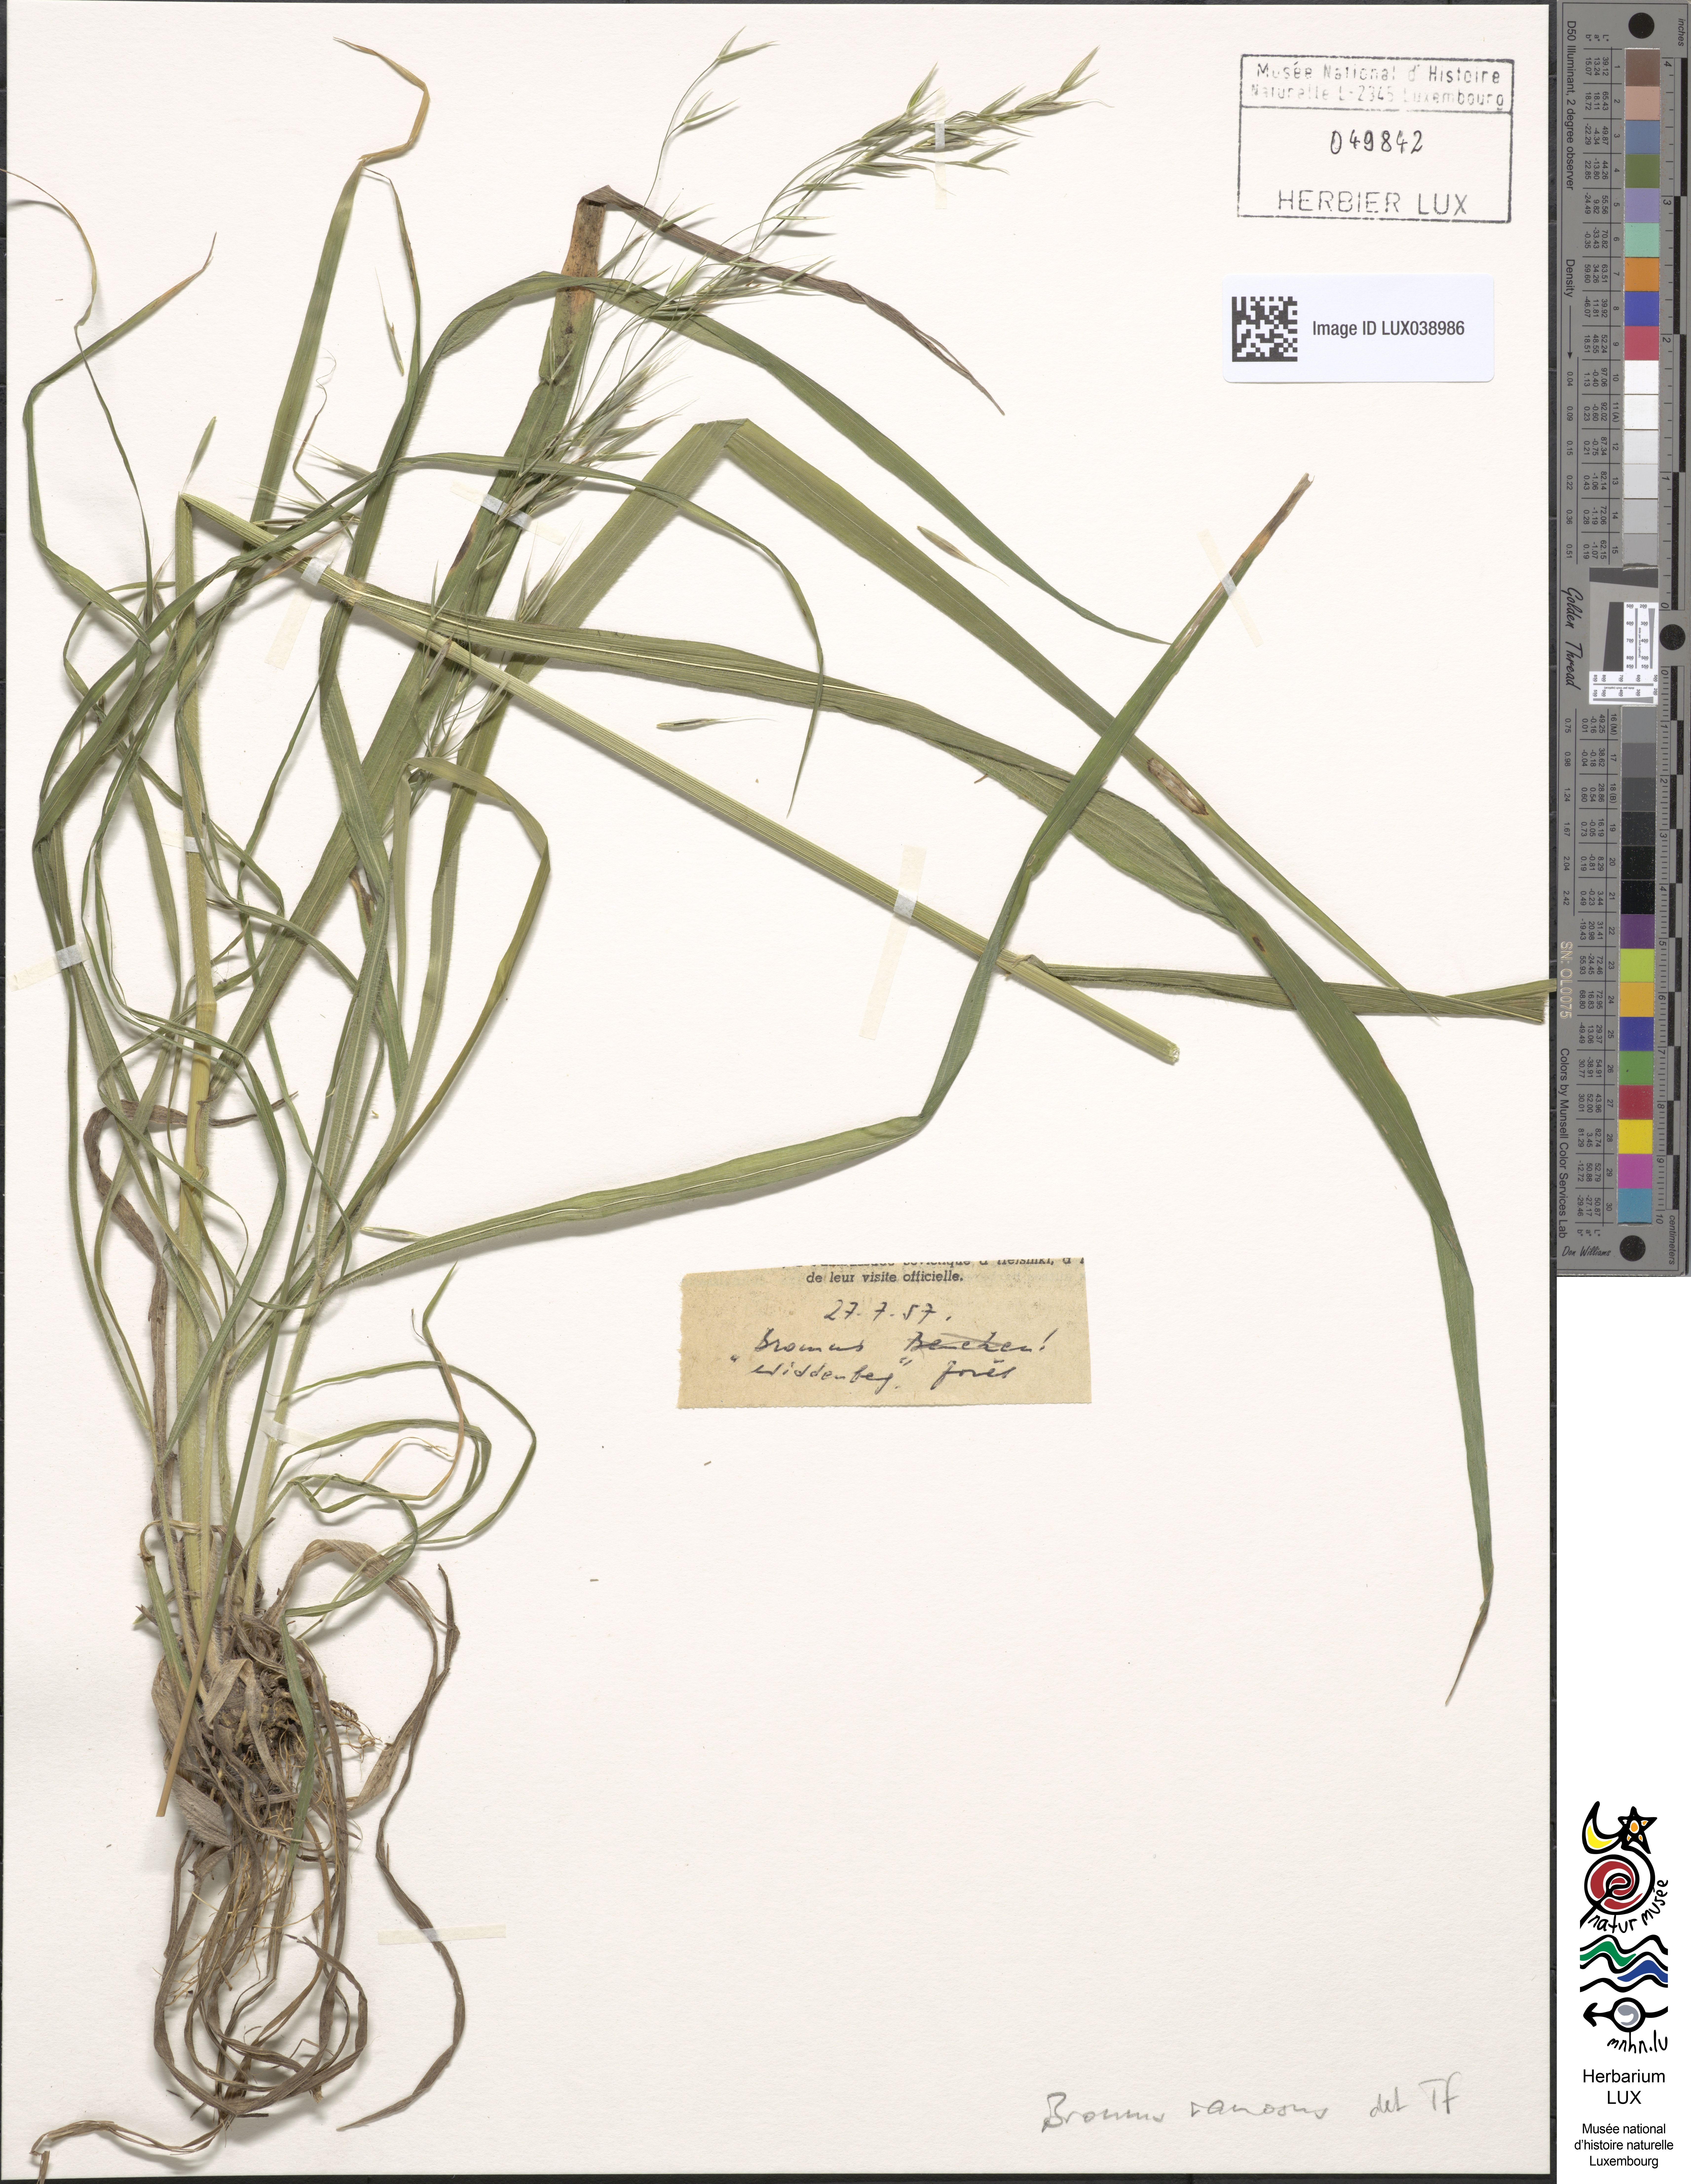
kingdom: Plantae
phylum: Tracheophyta
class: Liliopsida
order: Poales
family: Poaceae
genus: Bromus
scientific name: Bromus ramosus
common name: Hairy brome
